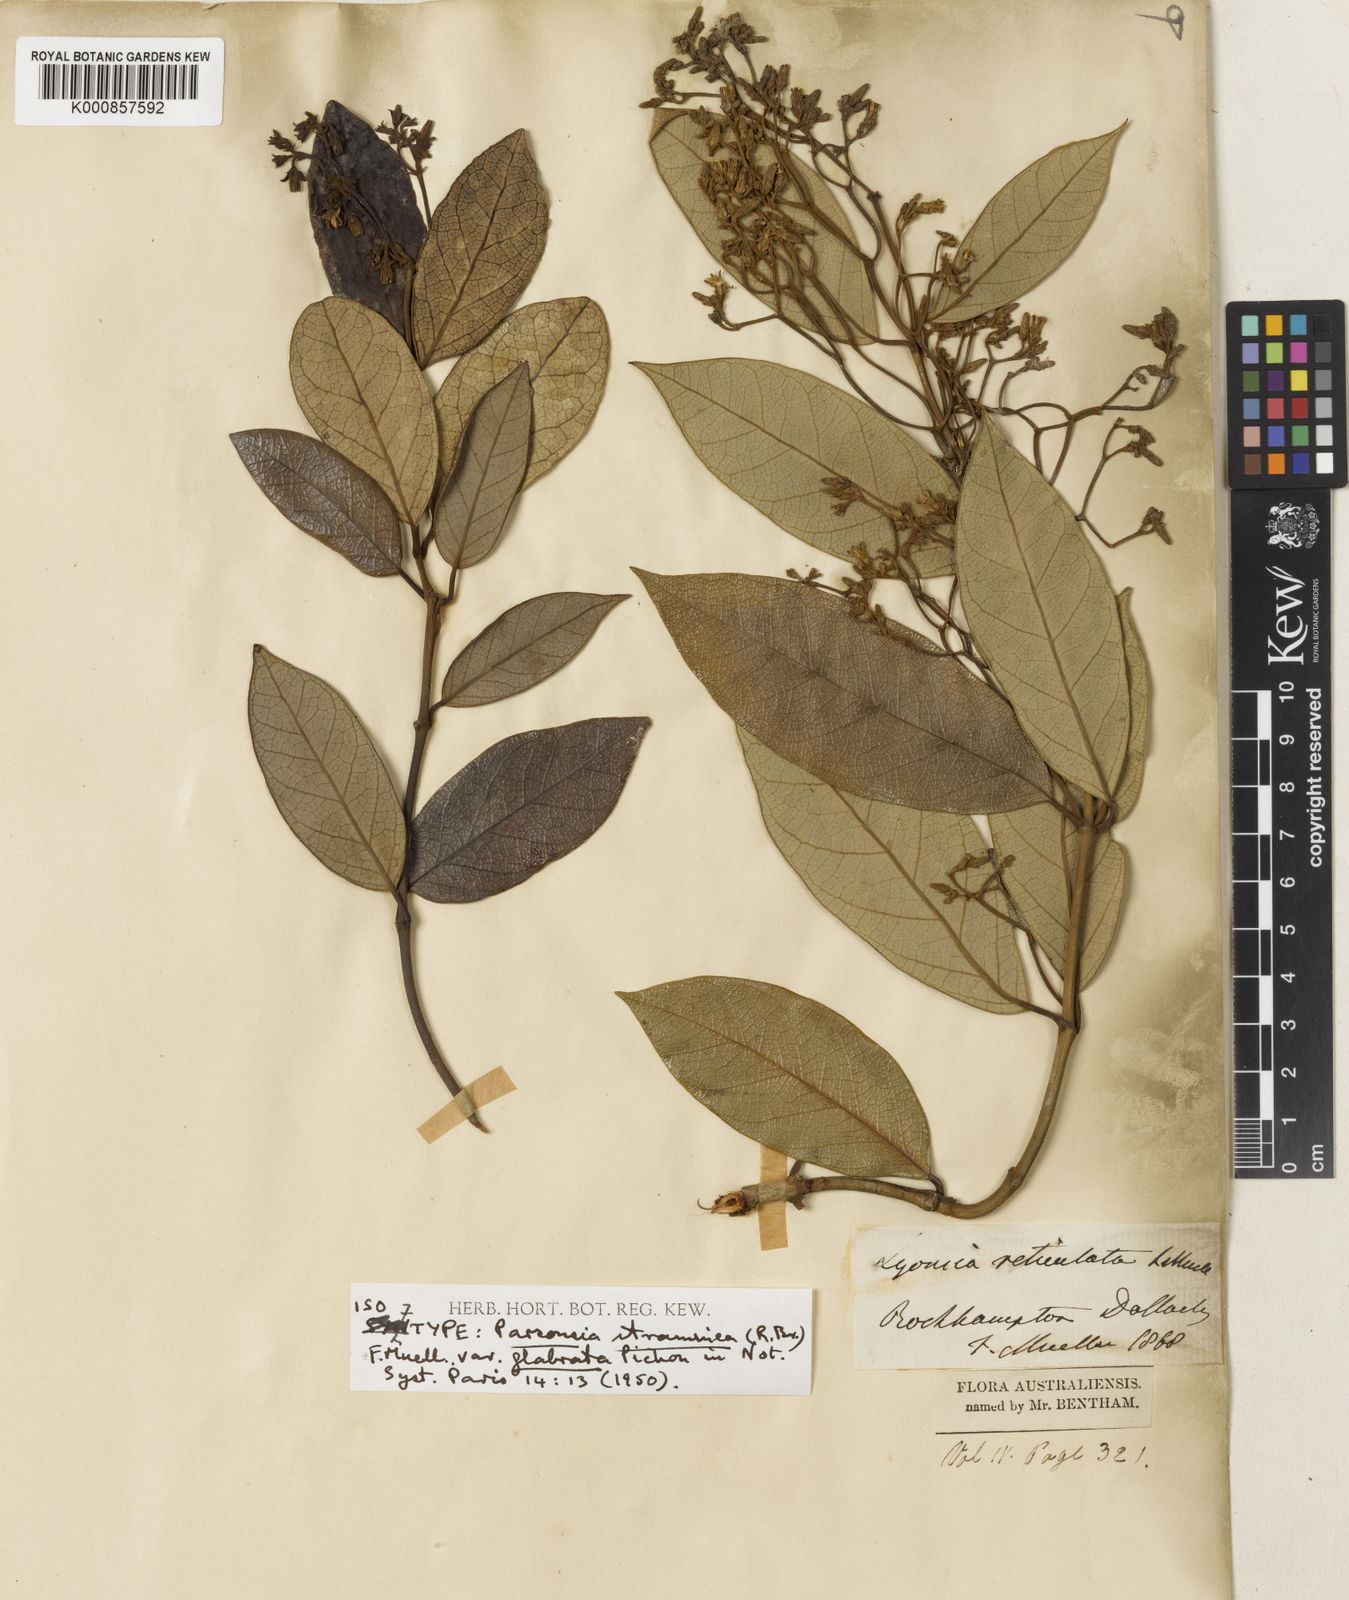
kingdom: Plantae
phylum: Tracheophyta
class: Magnoliopsida
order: Gentianales
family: Apocynaceae
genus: Parsonsia
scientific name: Parsonsia straminea
